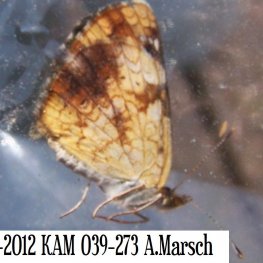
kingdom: Animalia
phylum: Arthropoda
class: Insecta
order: Lepidoptera
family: Nymphalidae
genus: Phyciodes
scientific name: Phyciodes tharos
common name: Northern Crescent
